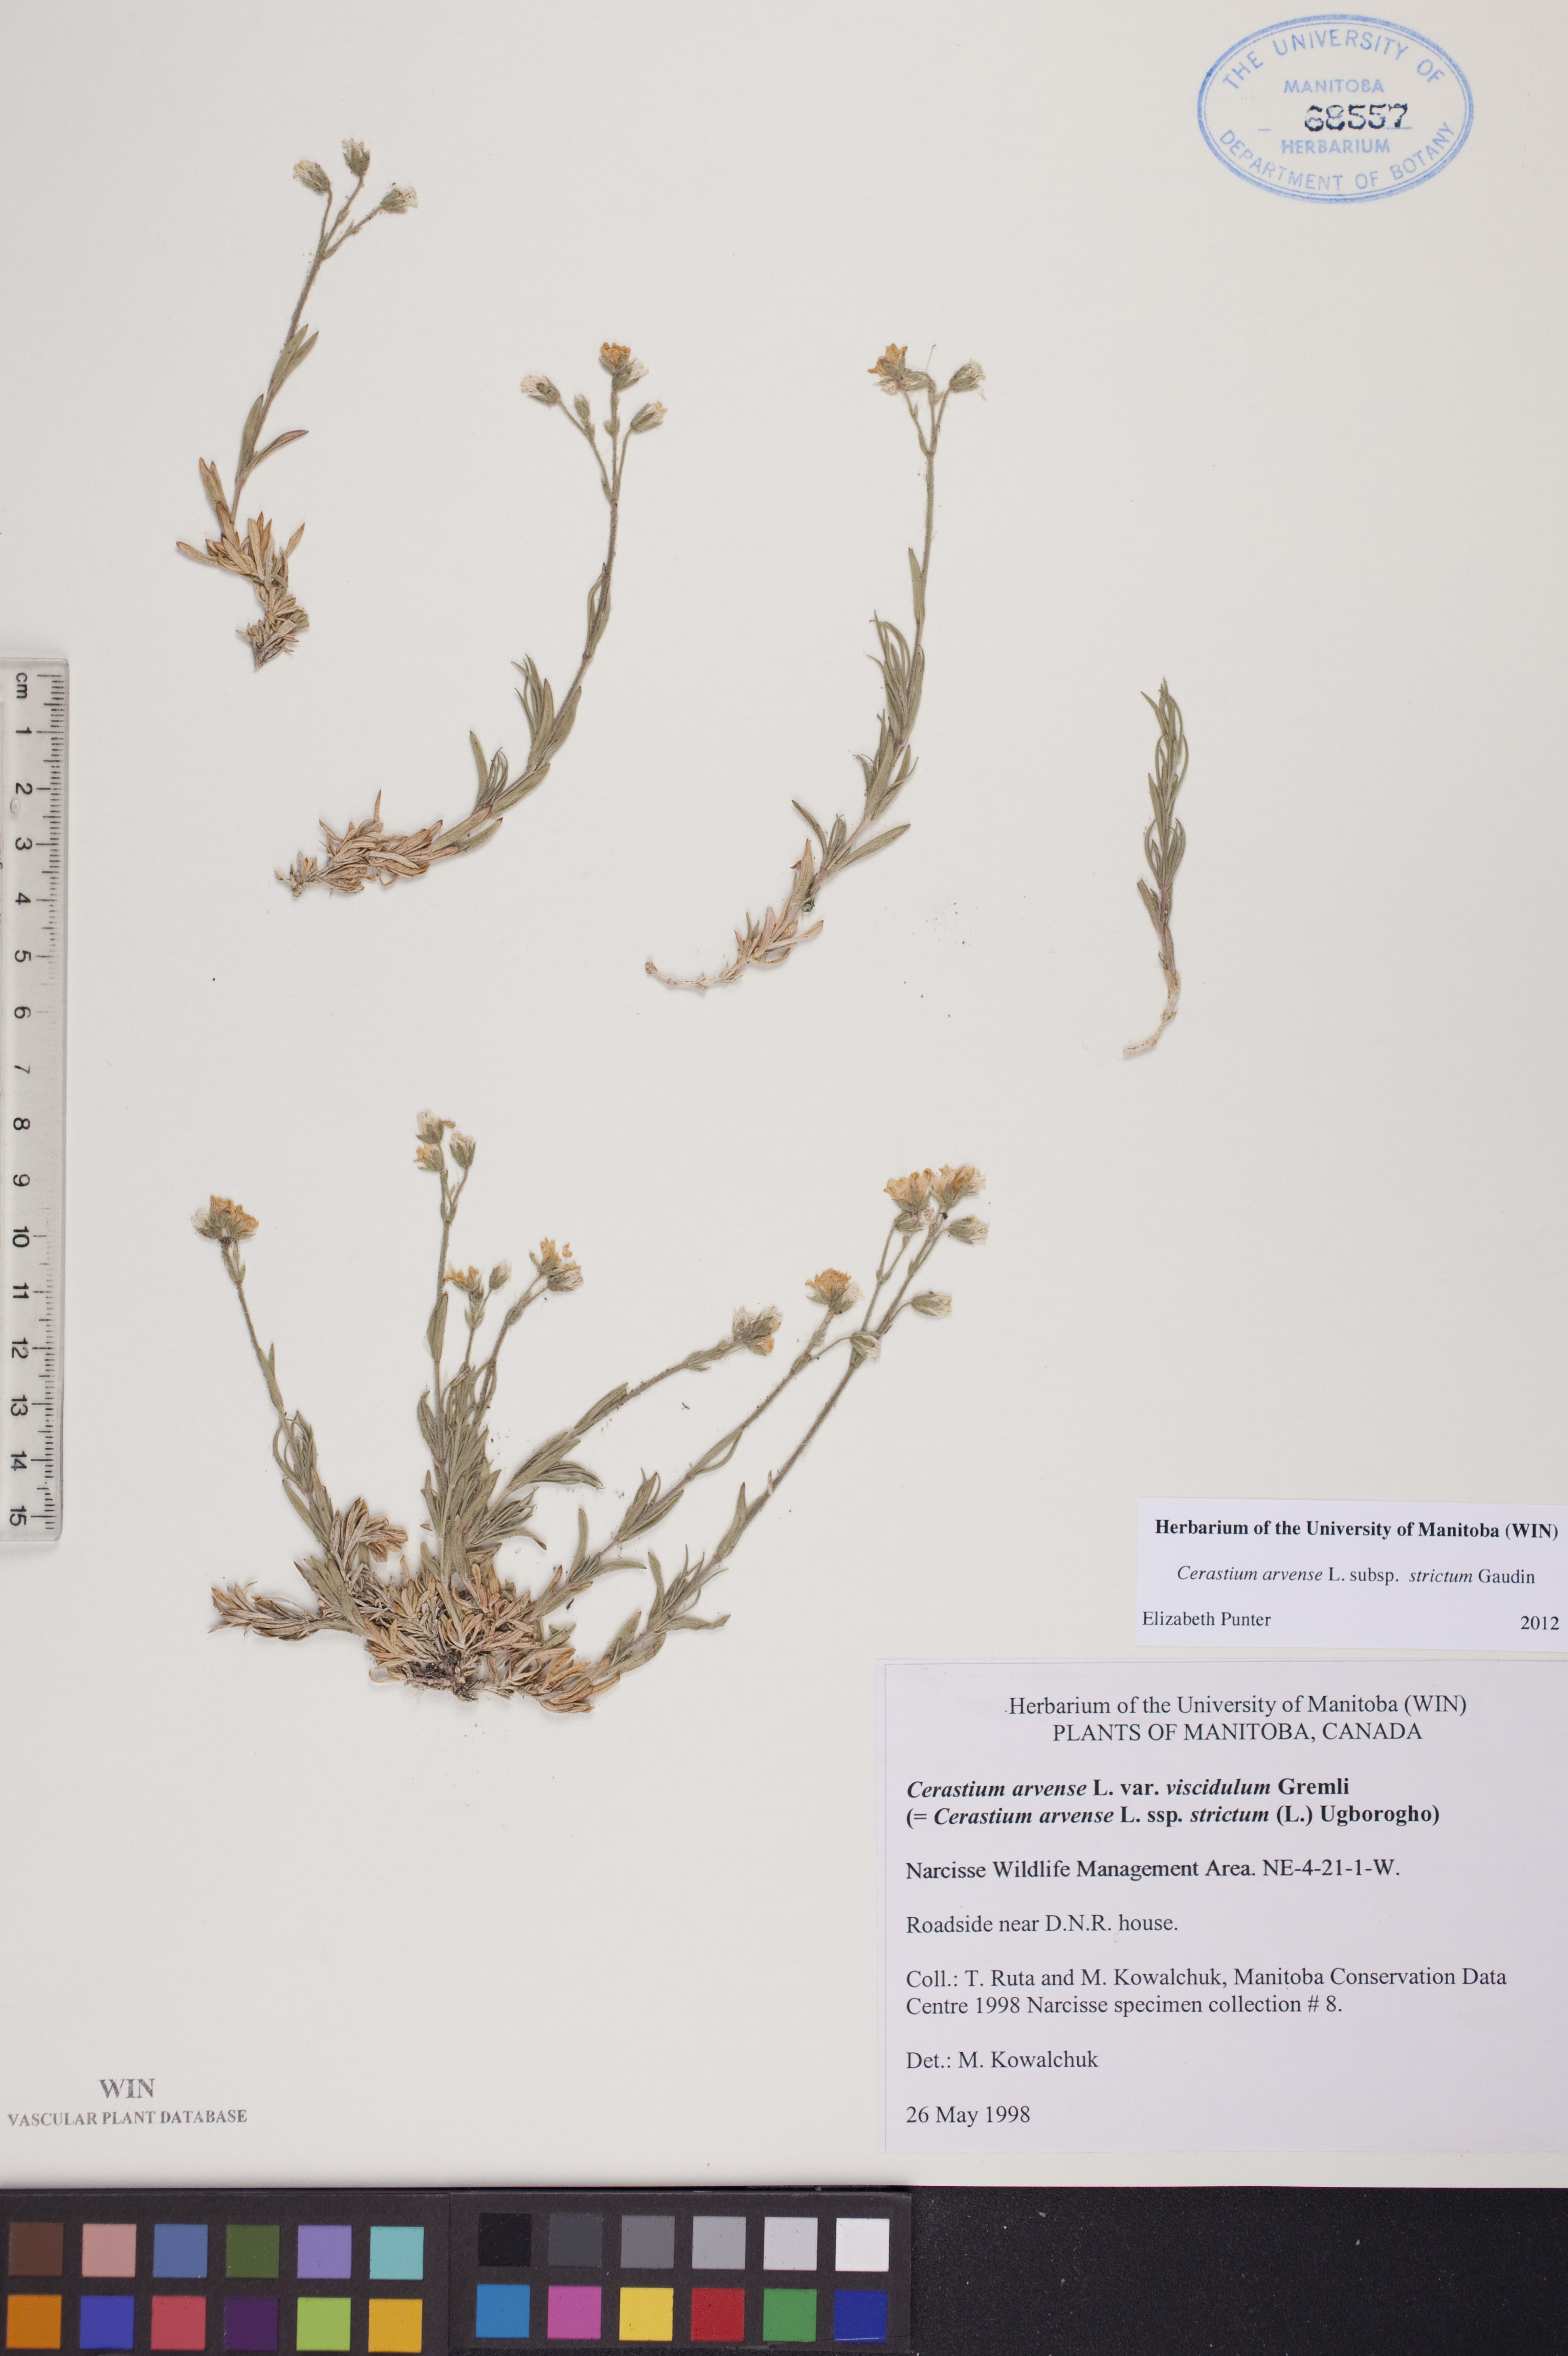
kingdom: Plantae
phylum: Tracheophyta
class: Magnoliopsida
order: Caryophyllales
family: Caryophyllaceae
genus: Cerastium
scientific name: Cerastium elongatum
